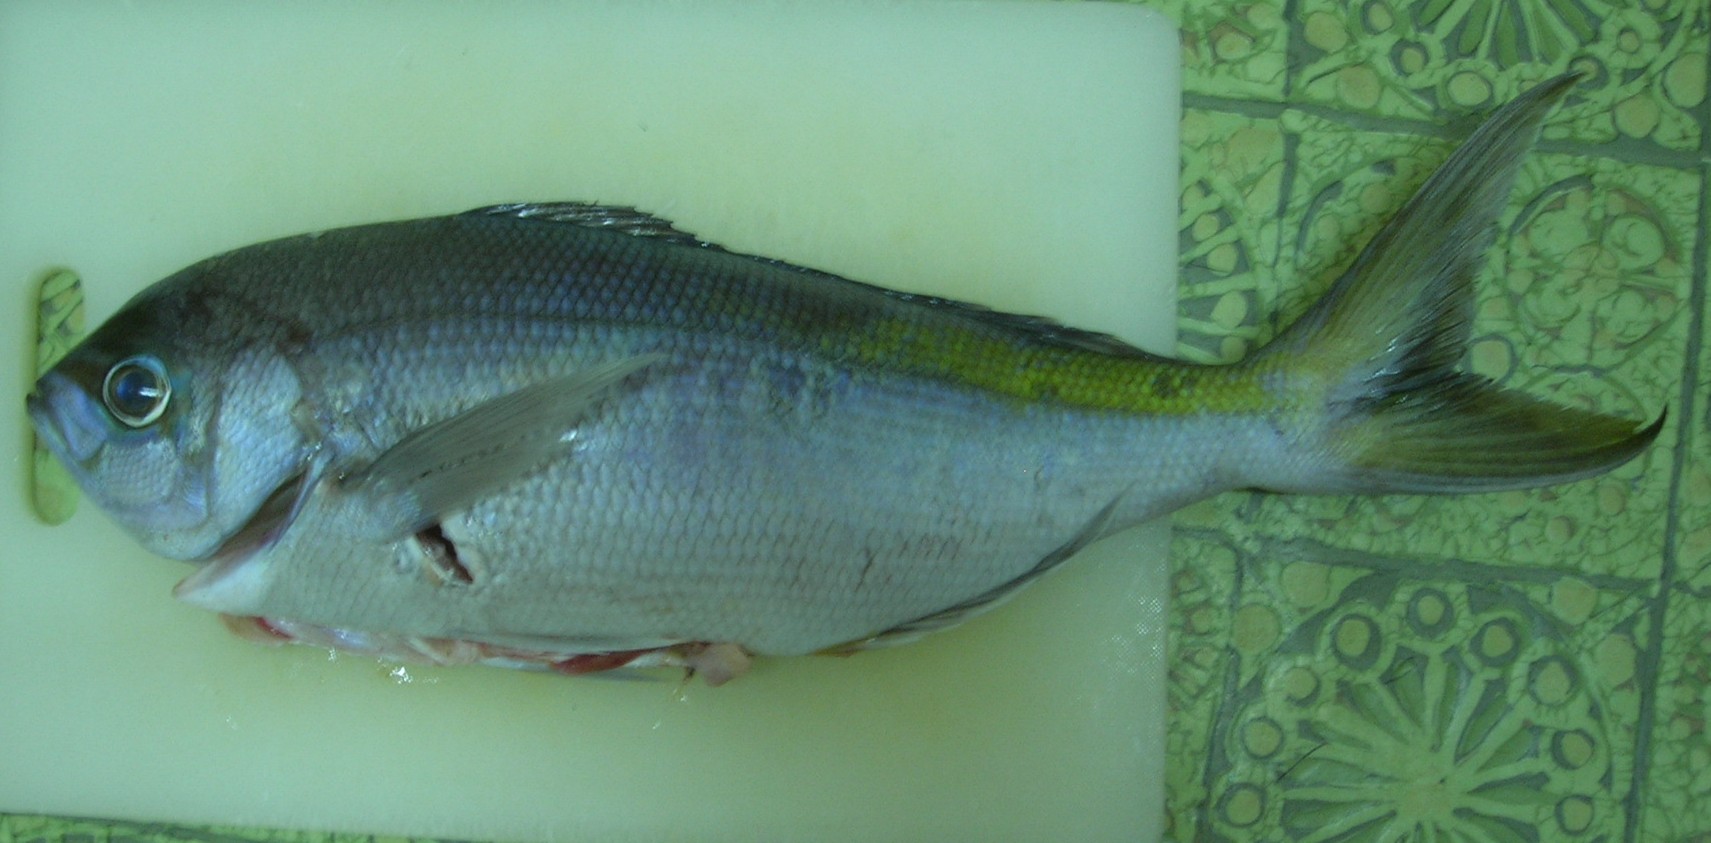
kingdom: Animalia
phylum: Chordata
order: Perciformes
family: Lutjanidae
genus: Paracaesio
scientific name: Paracaesio xanthura
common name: Yellowtail blue snapper
